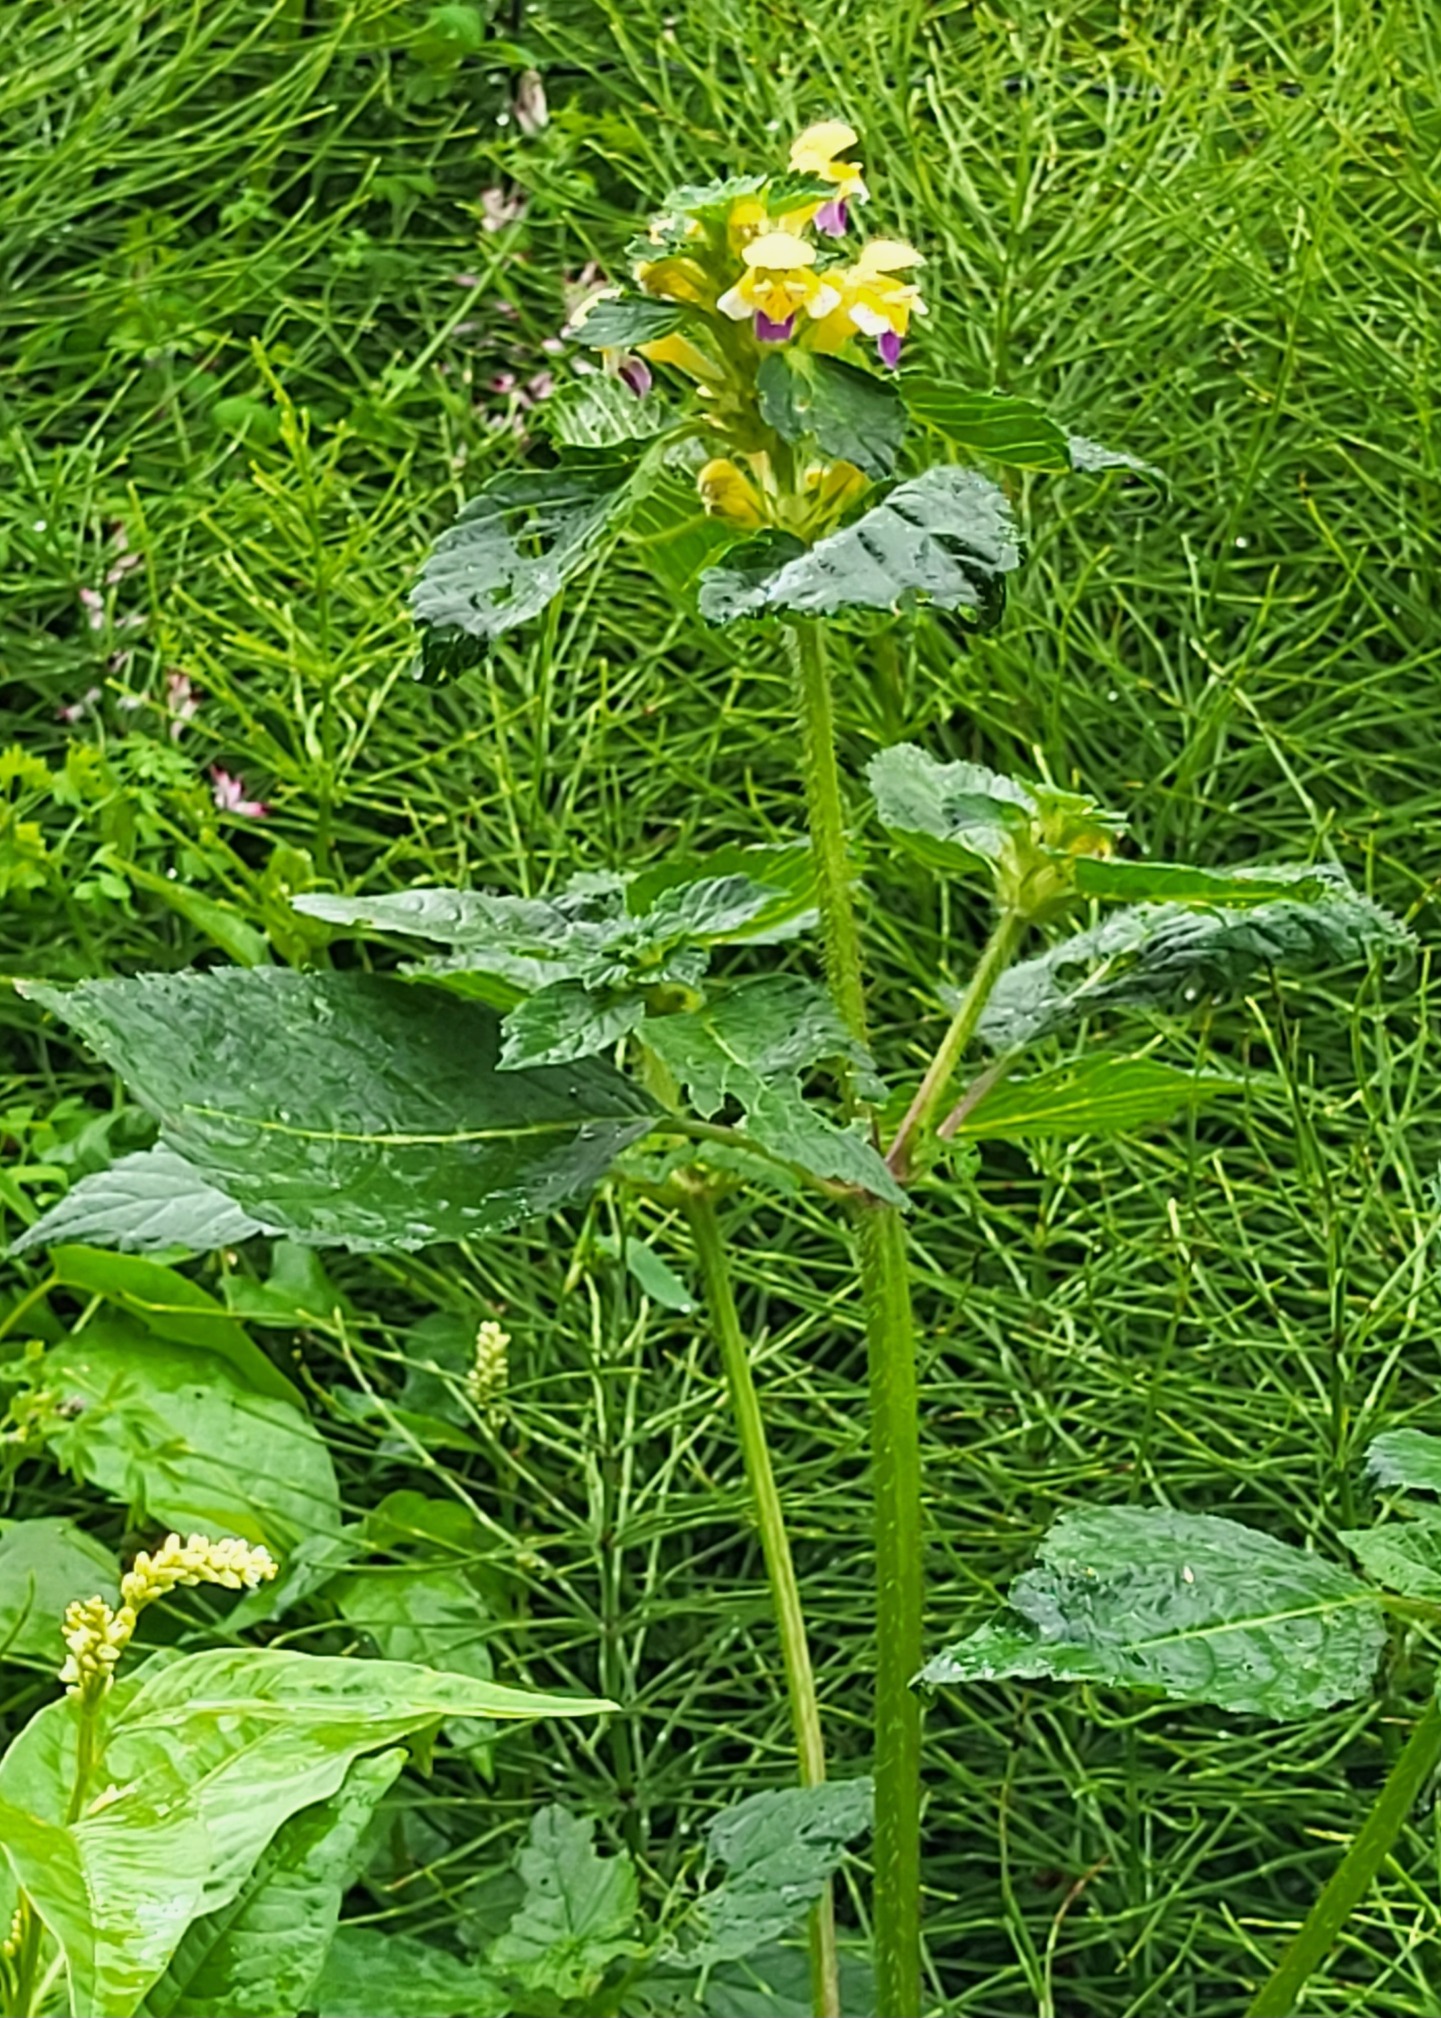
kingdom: Plantae
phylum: Tracheophyta
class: Magnoliopsida
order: Lamiales
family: Lamiaceae
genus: Galeopsis
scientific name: Galeopsis speciosa
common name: Hamp-hanekro
